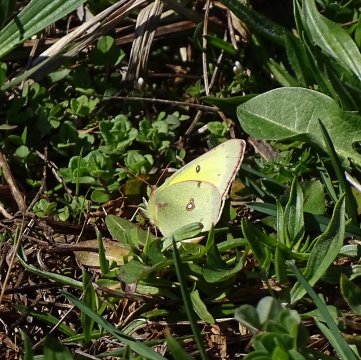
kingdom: Animalia
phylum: Arthropoda
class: Insecta
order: Lepidoptera
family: Pieridae
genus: Colias
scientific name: Colias philodice
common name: Clouded Sulphur
